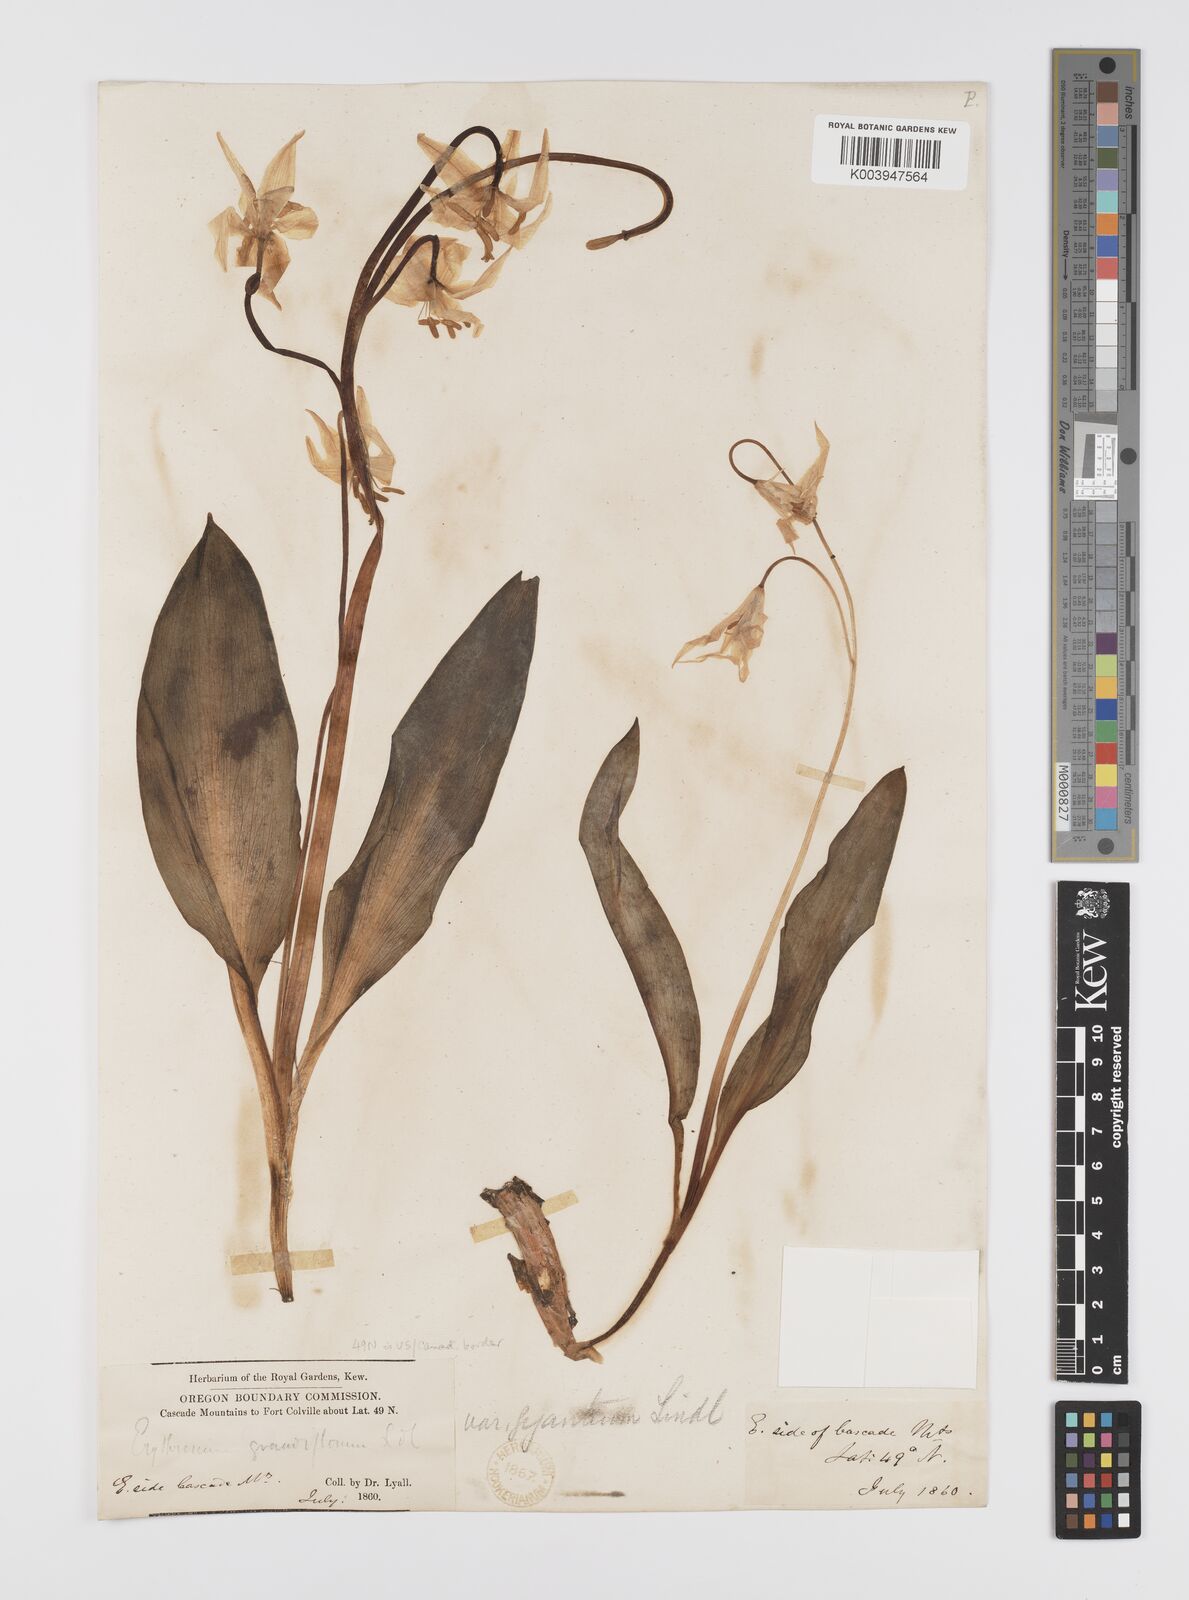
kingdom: Plantae
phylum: Tracheophyta
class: Liliopsida
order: Liliales
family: Liliaceae
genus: Erythronium
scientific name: Erythronium grandiflorum
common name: Avalanche-lily
